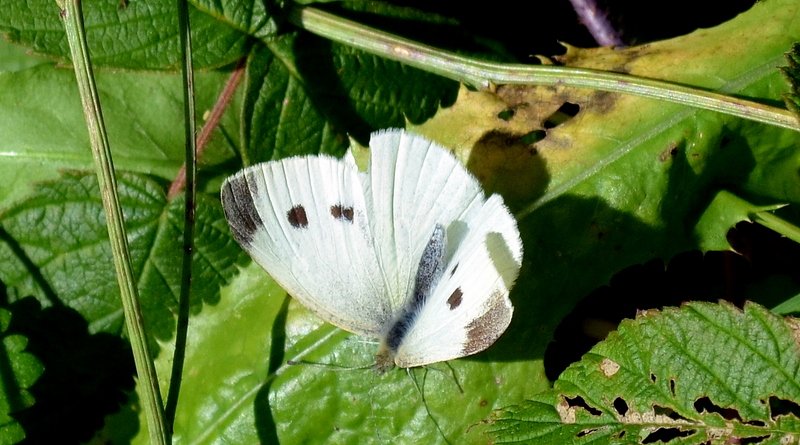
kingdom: Animalia
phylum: Arthropoda
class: Insecta
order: Lepidoptera
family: Pieridae
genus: Pieris
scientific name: Pieris rapae
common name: Cabbage White
